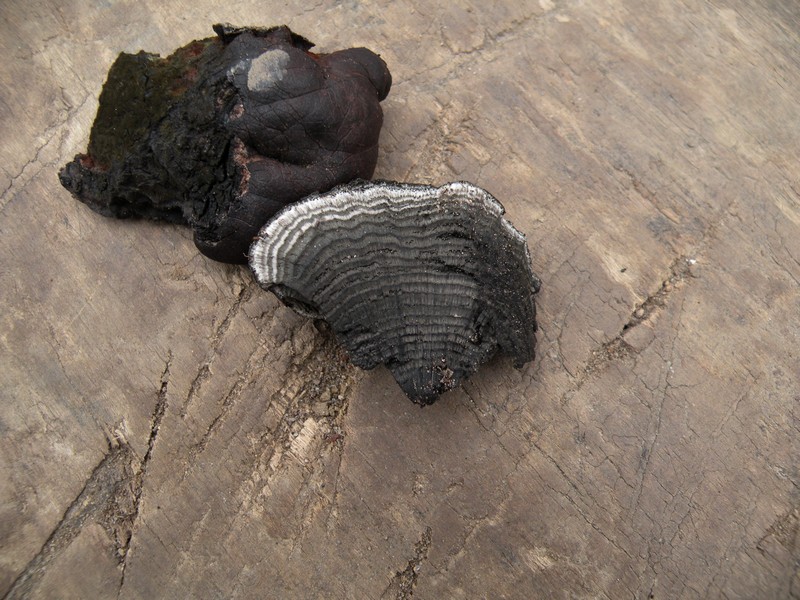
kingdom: Fungi
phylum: Ascomycota
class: Sordariomycetes
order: Xylariales
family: Hypoxylaceae
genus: Daldinia
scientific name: Daldinia concentrica
